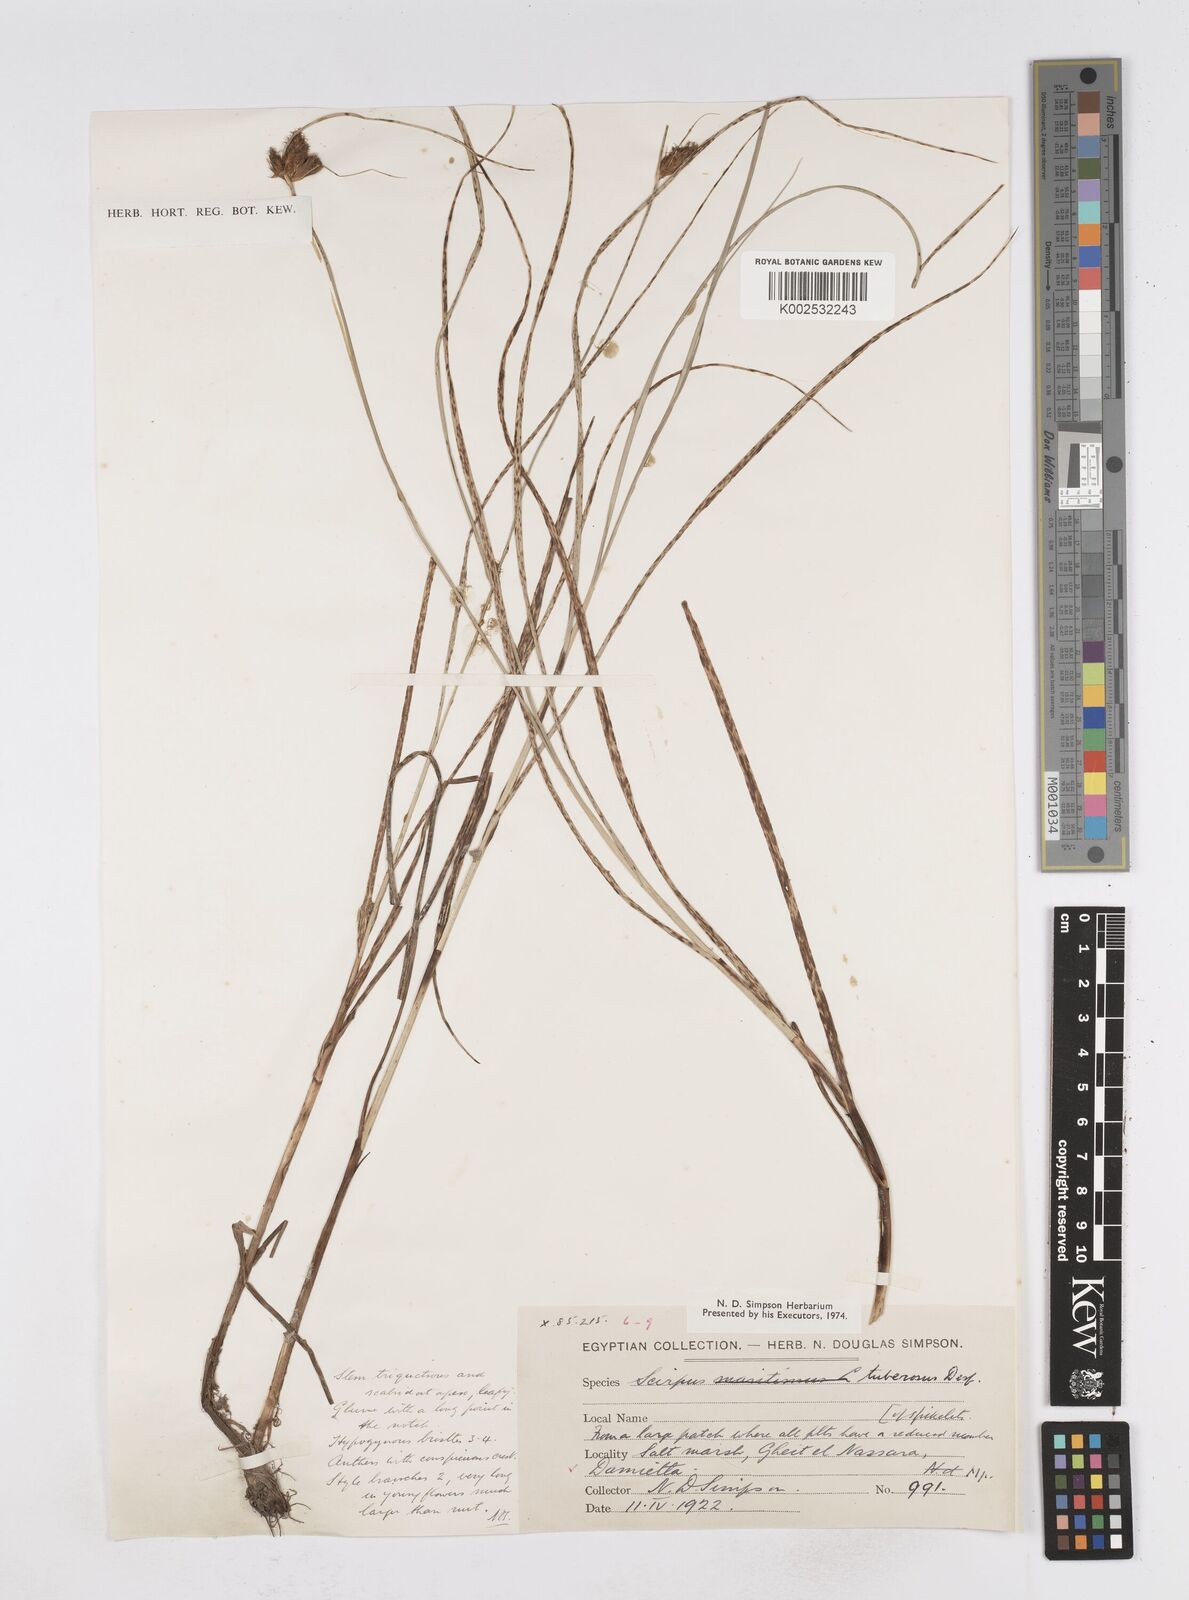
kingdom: Plantae
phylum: Tracheophyta
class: Liliopsida
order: Poales
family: Cyperaceae
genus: Bolboschoenus
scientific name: Bolboschoenus maritimus
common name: Sea club-rush
